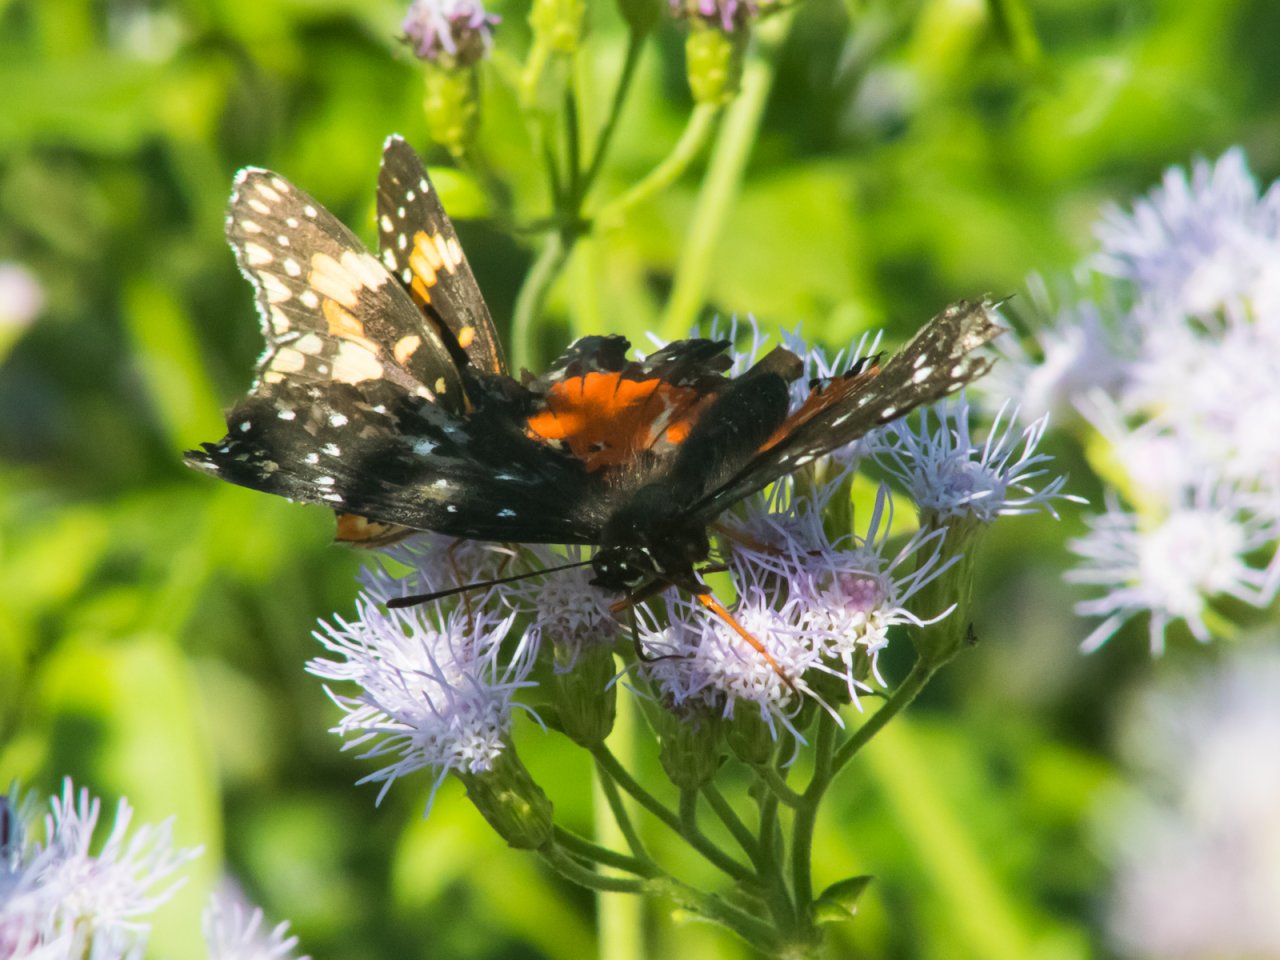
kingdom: Animalia
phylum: Arthropoda
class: Insecta
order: Lepidoptera
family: Nymphalidae
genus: Chlosyne
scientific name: Chlosyne janais
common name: Crimson Patch
